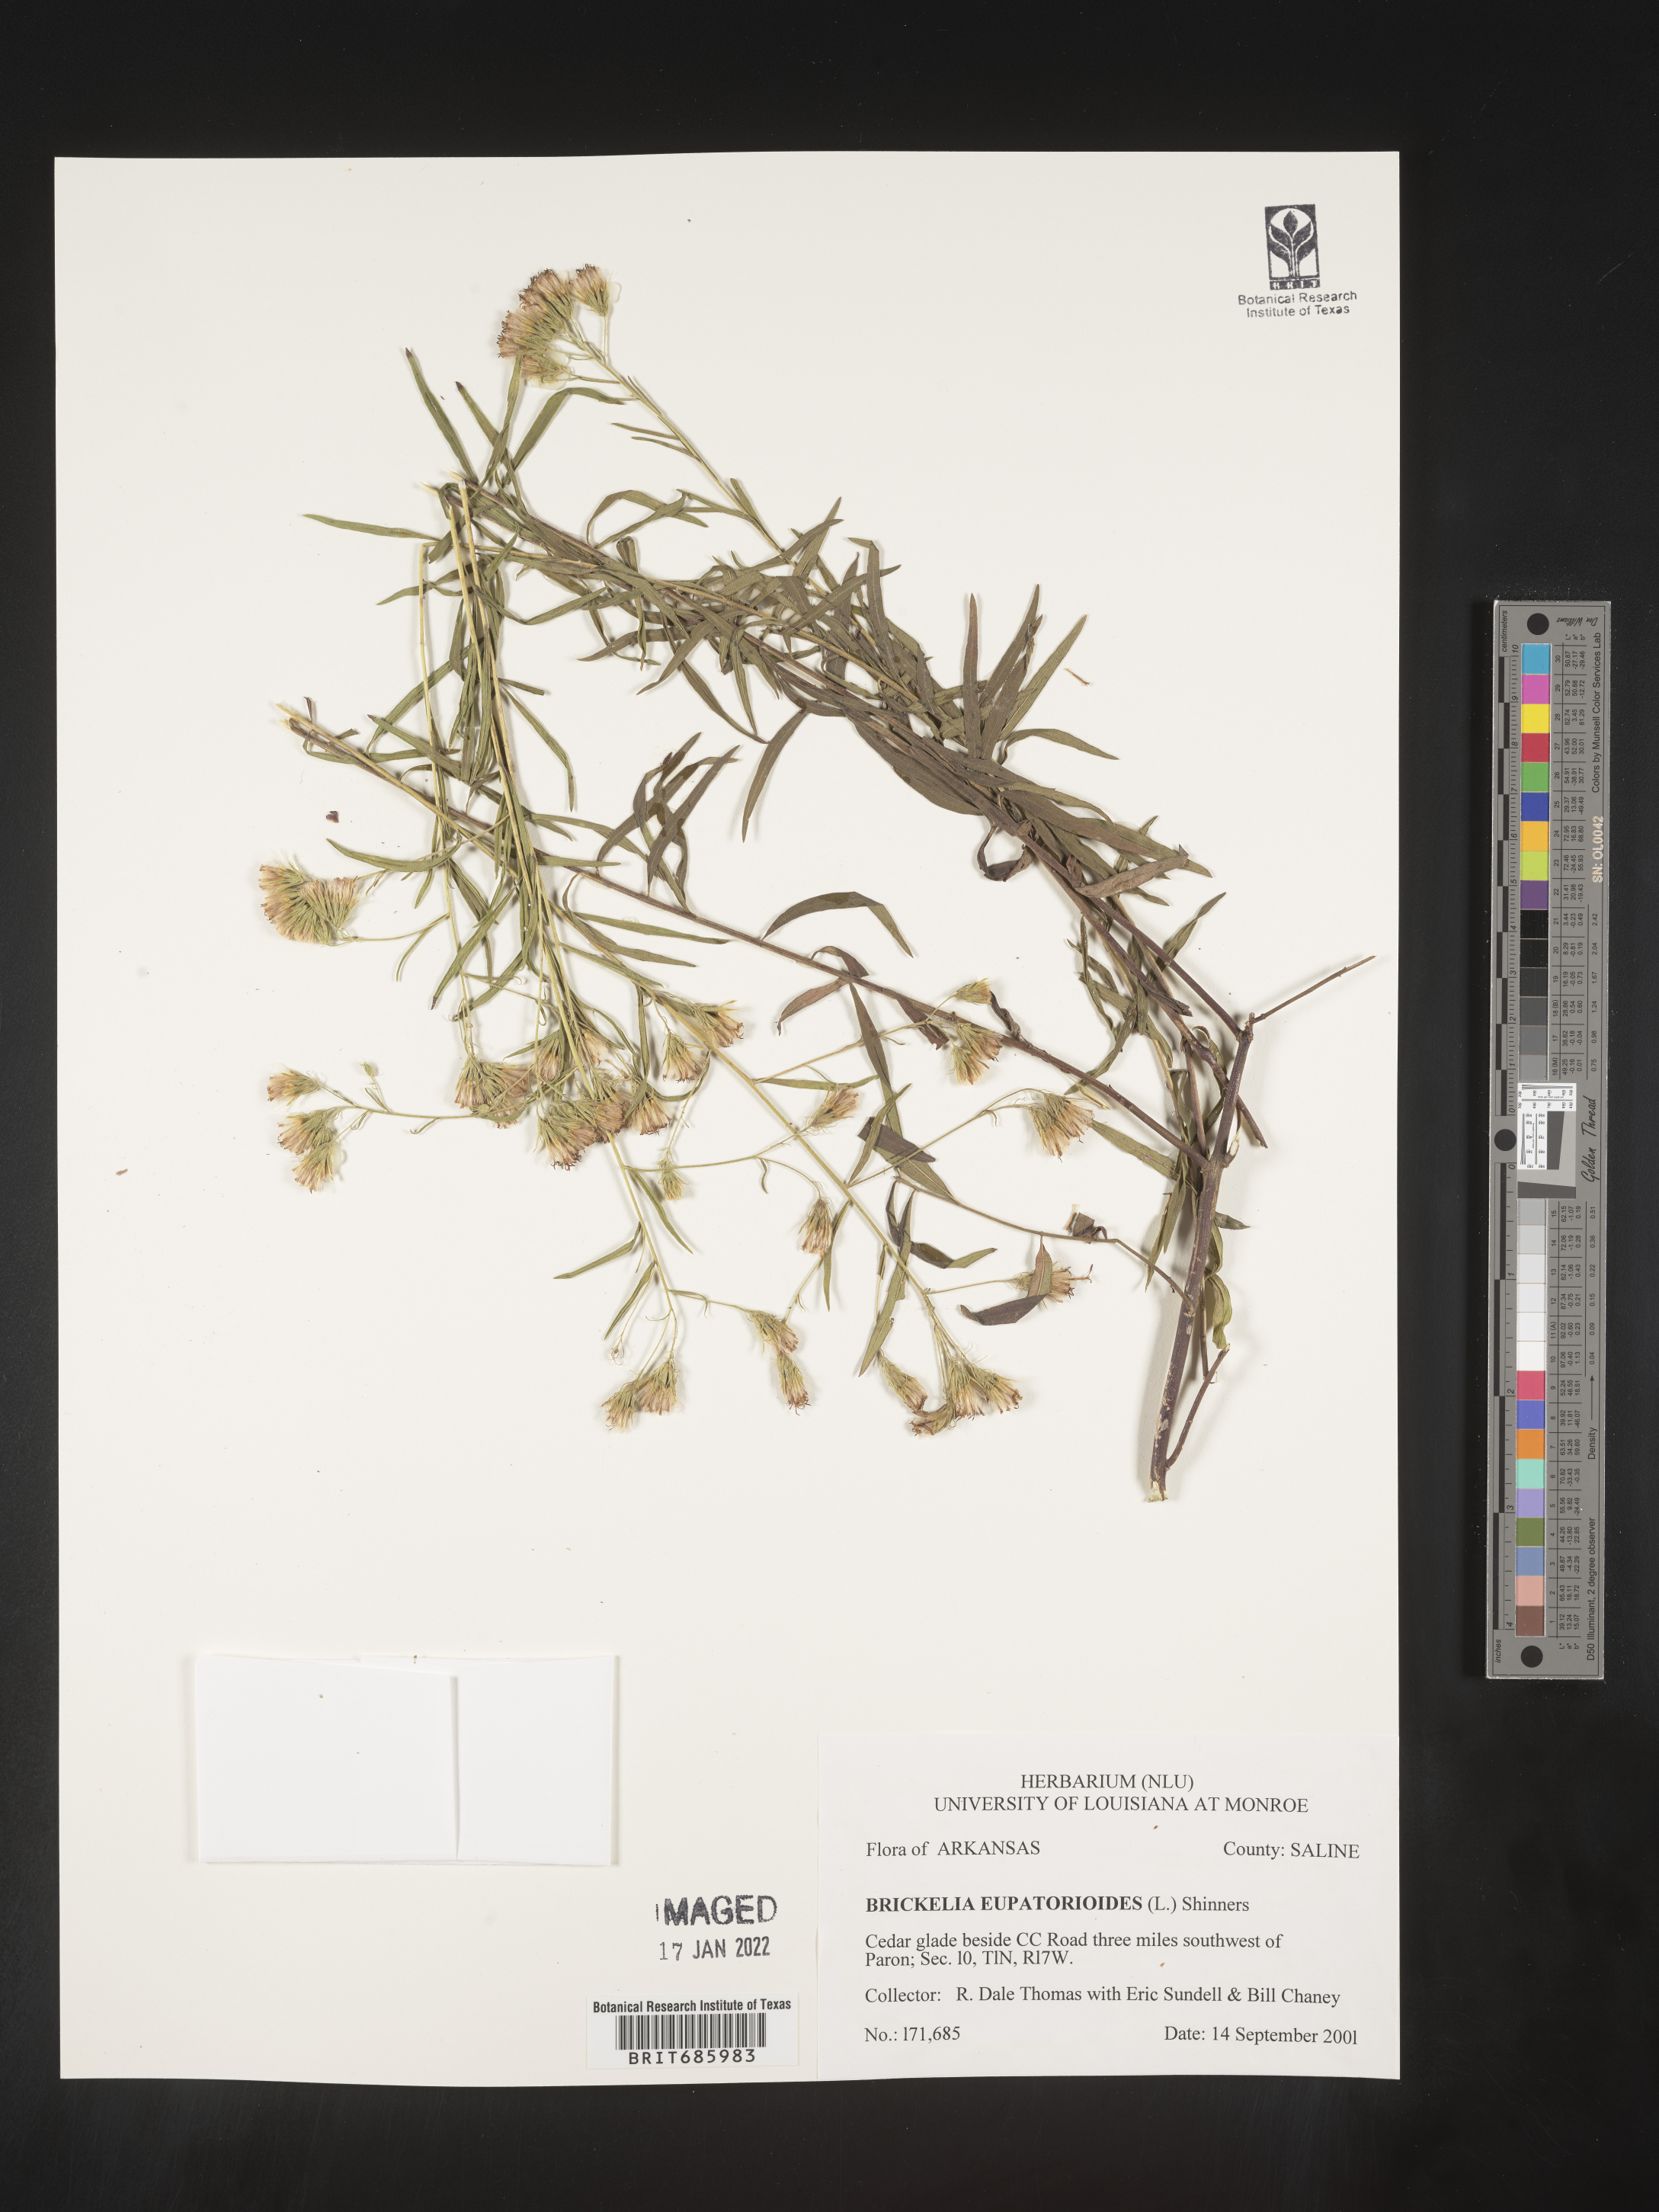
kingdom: Plantae
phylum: Tracheophyta
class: Magnoliopsida
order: Asterales
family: Asteraceae
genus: Brickellia
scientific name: Brickellia eupatorioides
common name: False boneset
